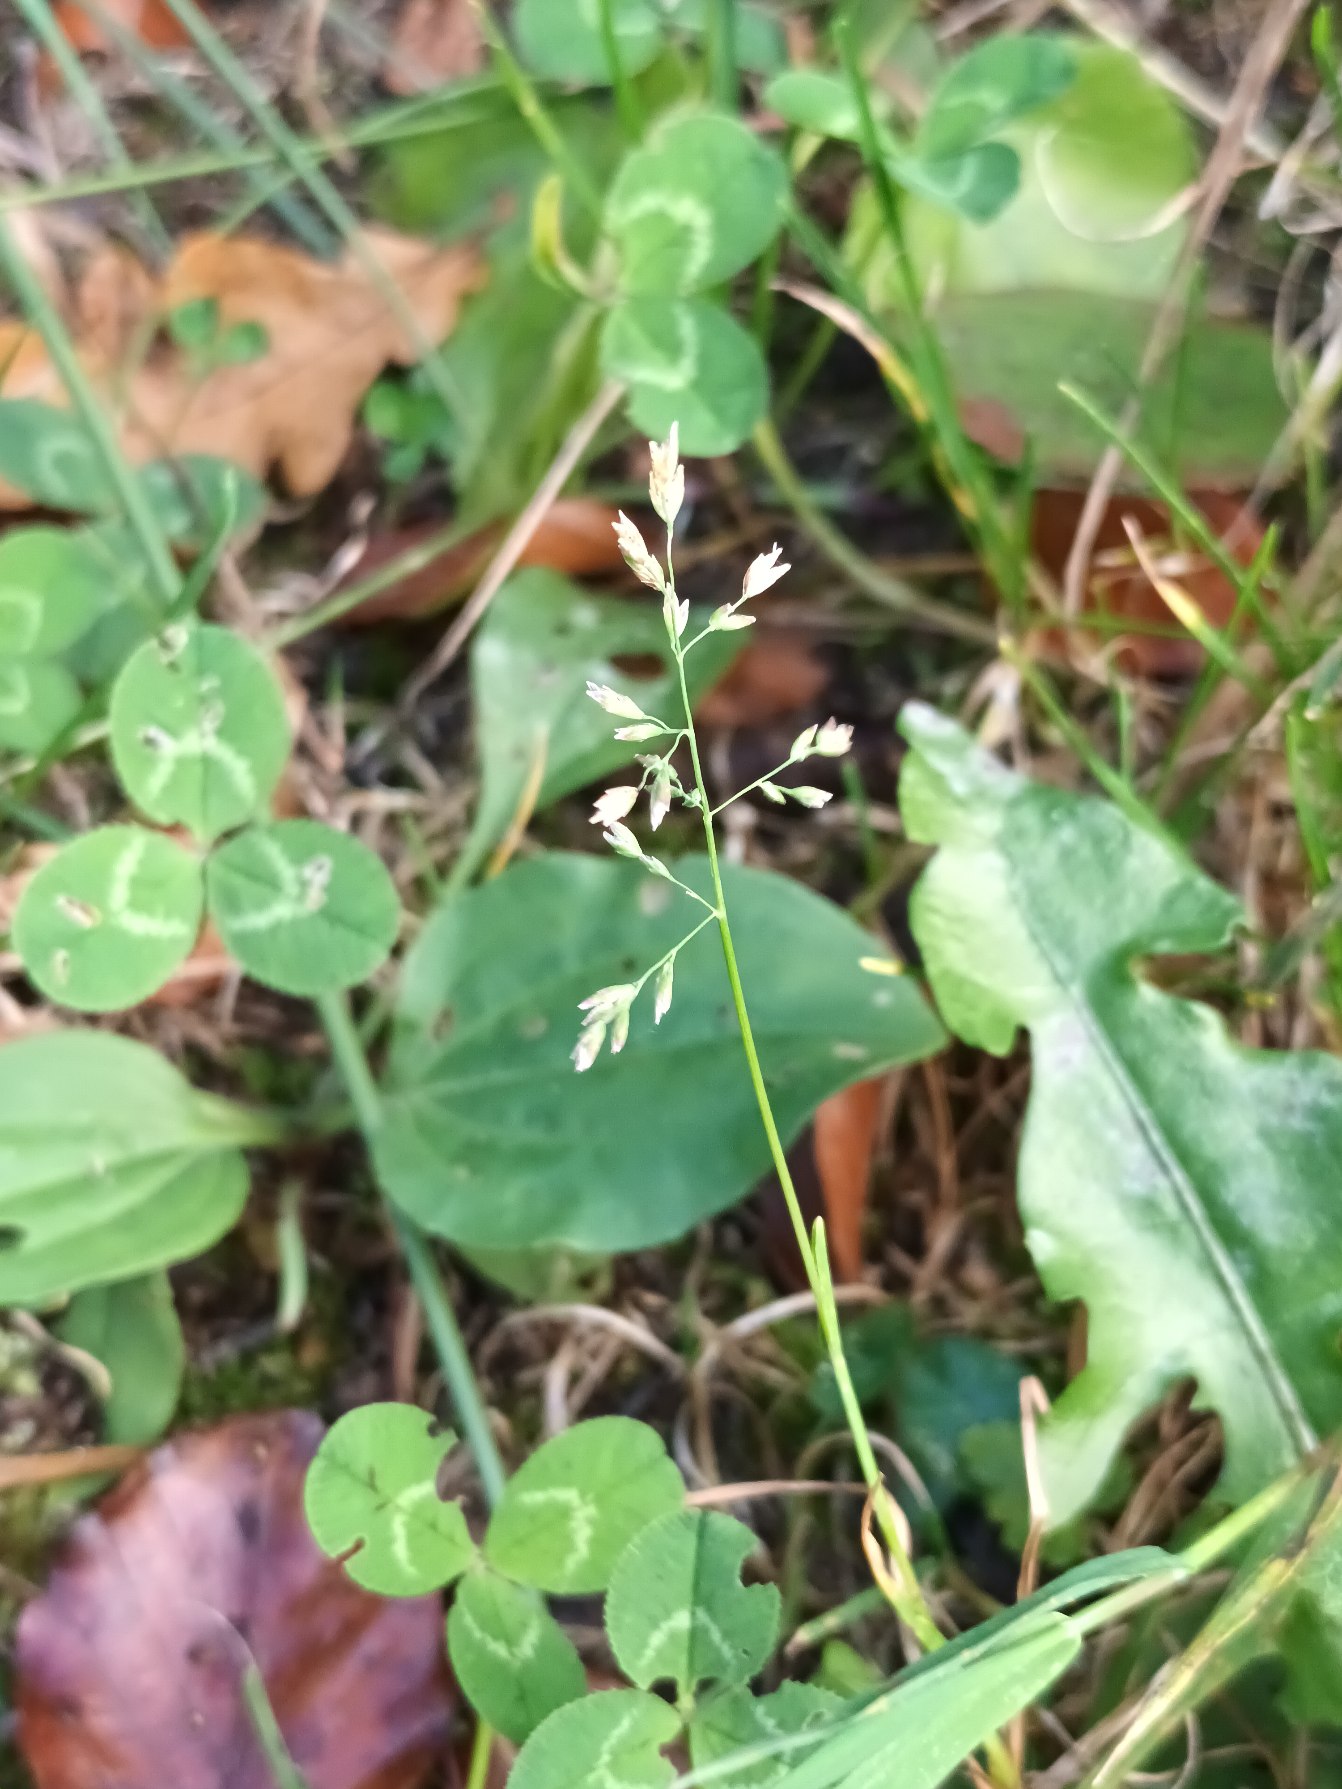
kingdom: Plantae
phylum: Tracheophyta
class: Liliopsida
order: Poales
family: Poaceae
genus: Poa
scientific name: Poa annua
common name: Enårig rapgræs
